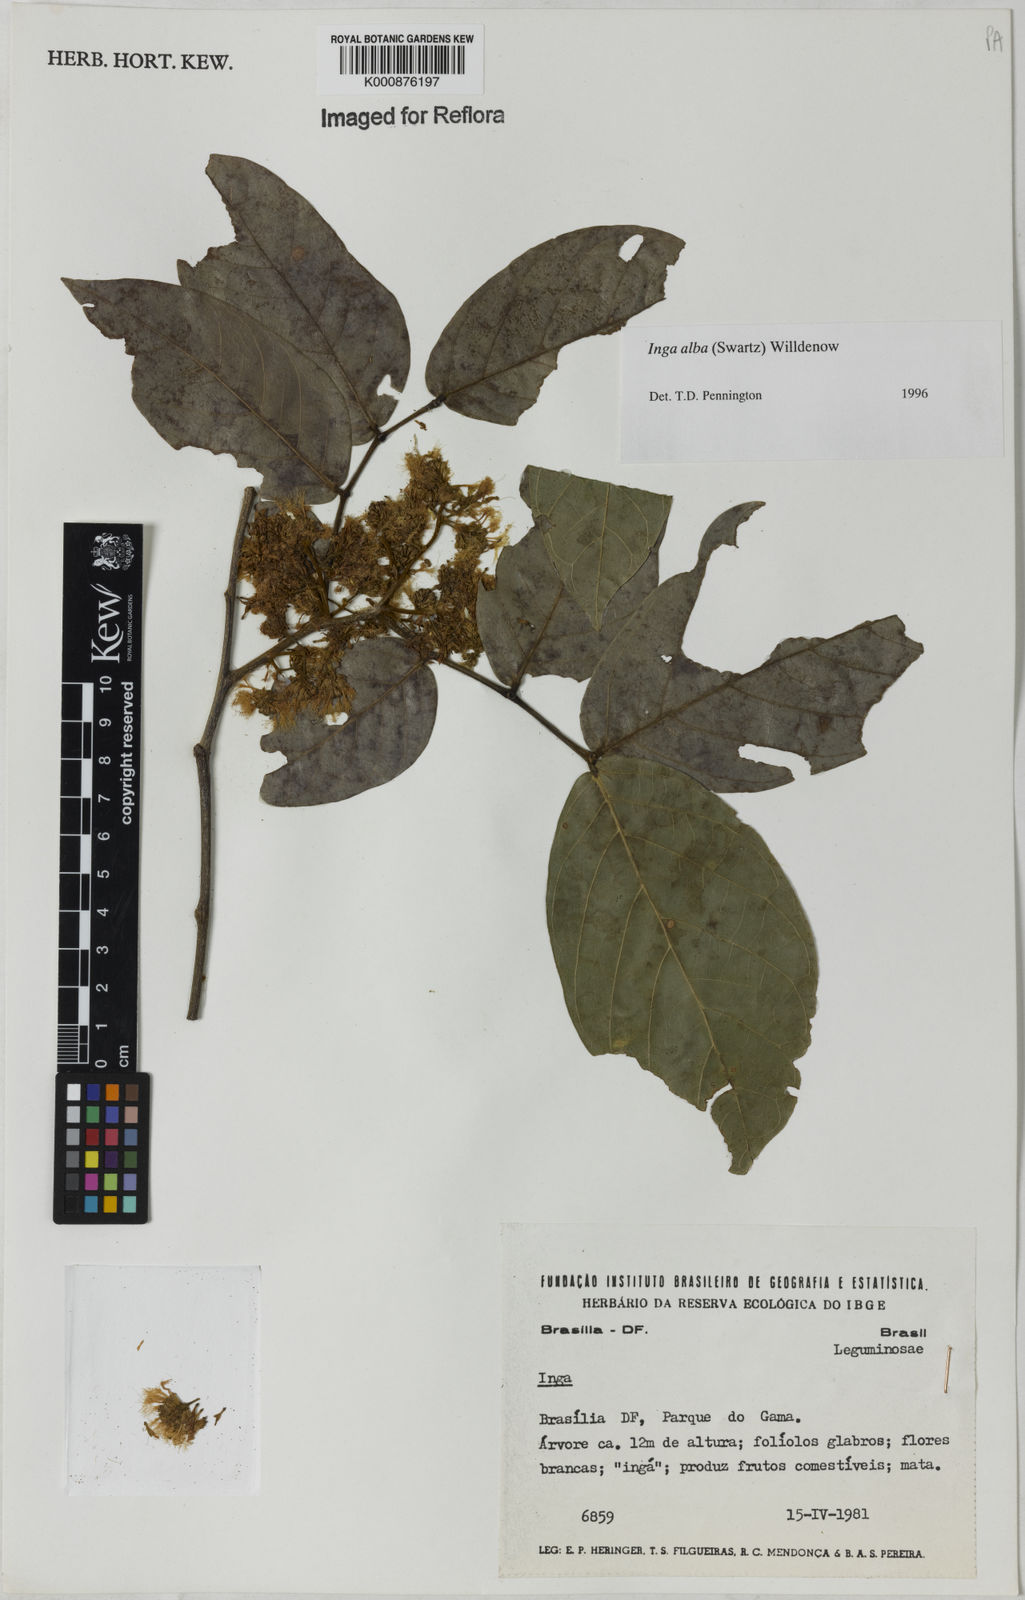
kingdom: Plantae
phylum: Tracheophyta
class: Magnoliopsida
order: Fabales
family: Fabaceae
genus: Inga
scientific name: Inga alba
